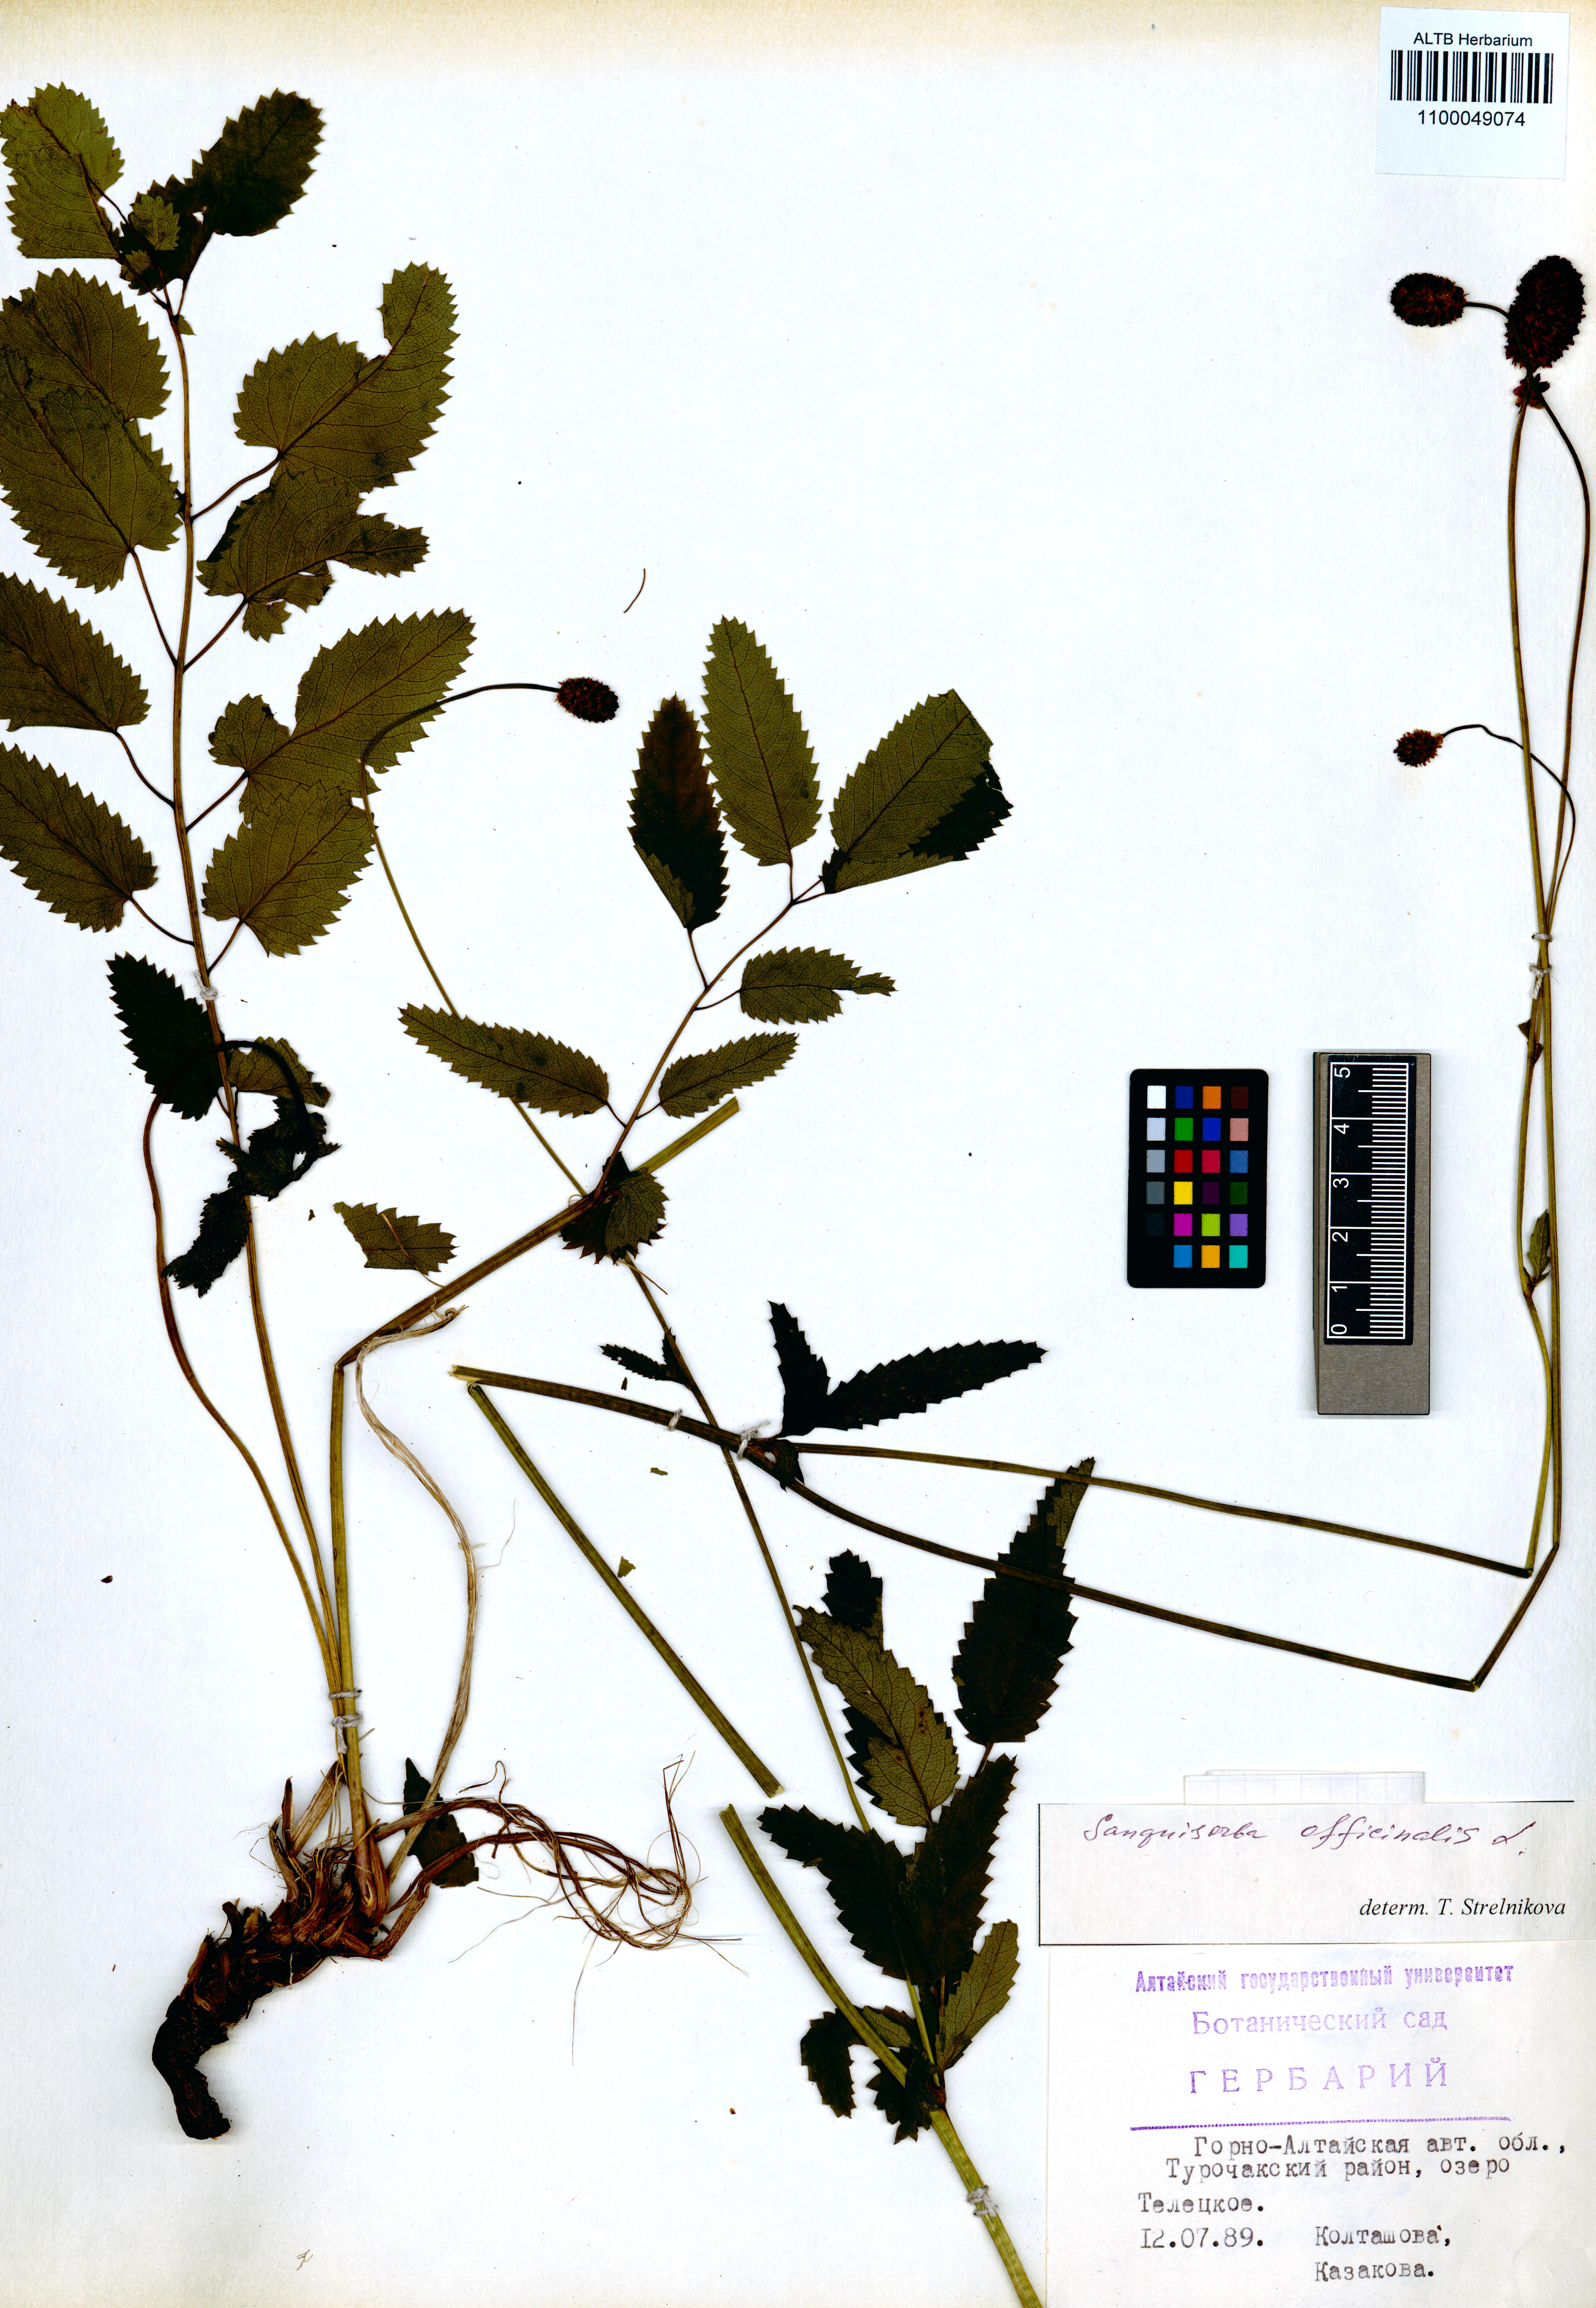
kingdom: Plantae
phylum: Tracheophyta
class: Magnoliopsida
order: Rosales
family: Rosaceae
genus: Sanguisorba
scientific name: Sanguisorba officinalis
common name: Great burnet
